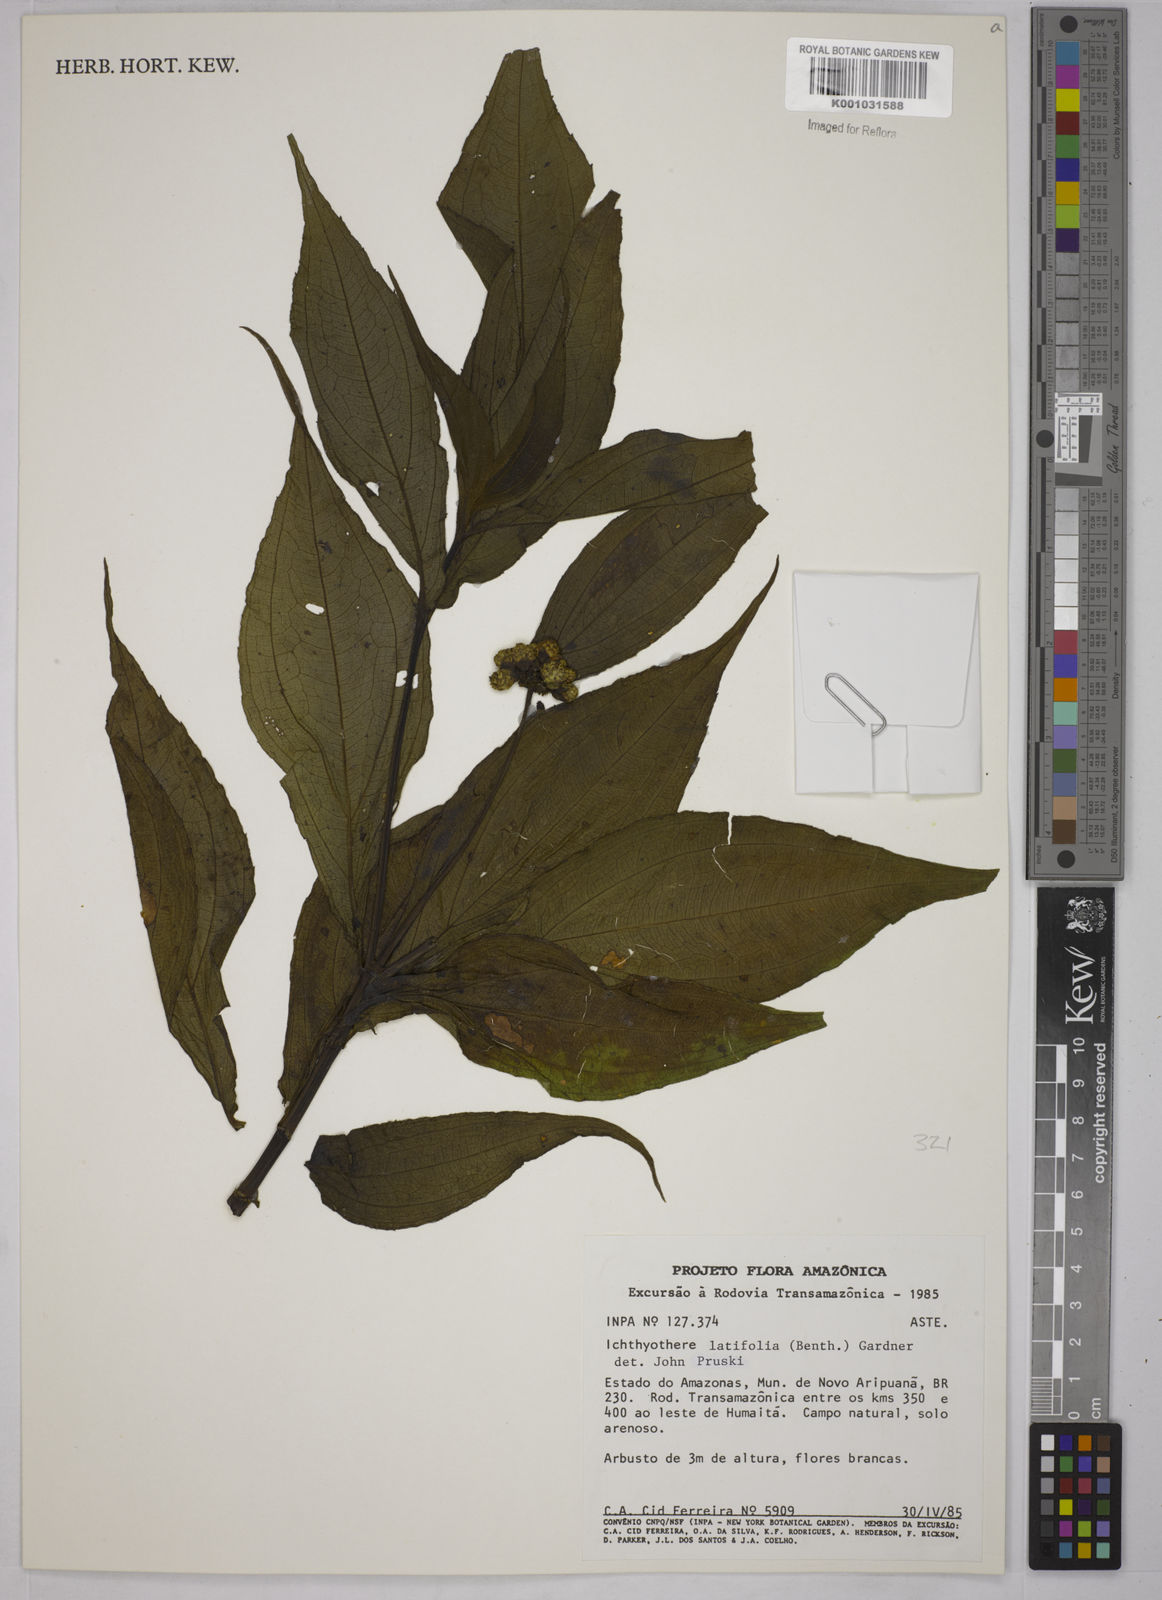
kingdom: Plantae
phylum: Tracheophyta
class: Magnoliopsida
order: Asterales
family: Asteraceae
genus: Ichthyothere
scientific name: Ichthyothere latifolia
